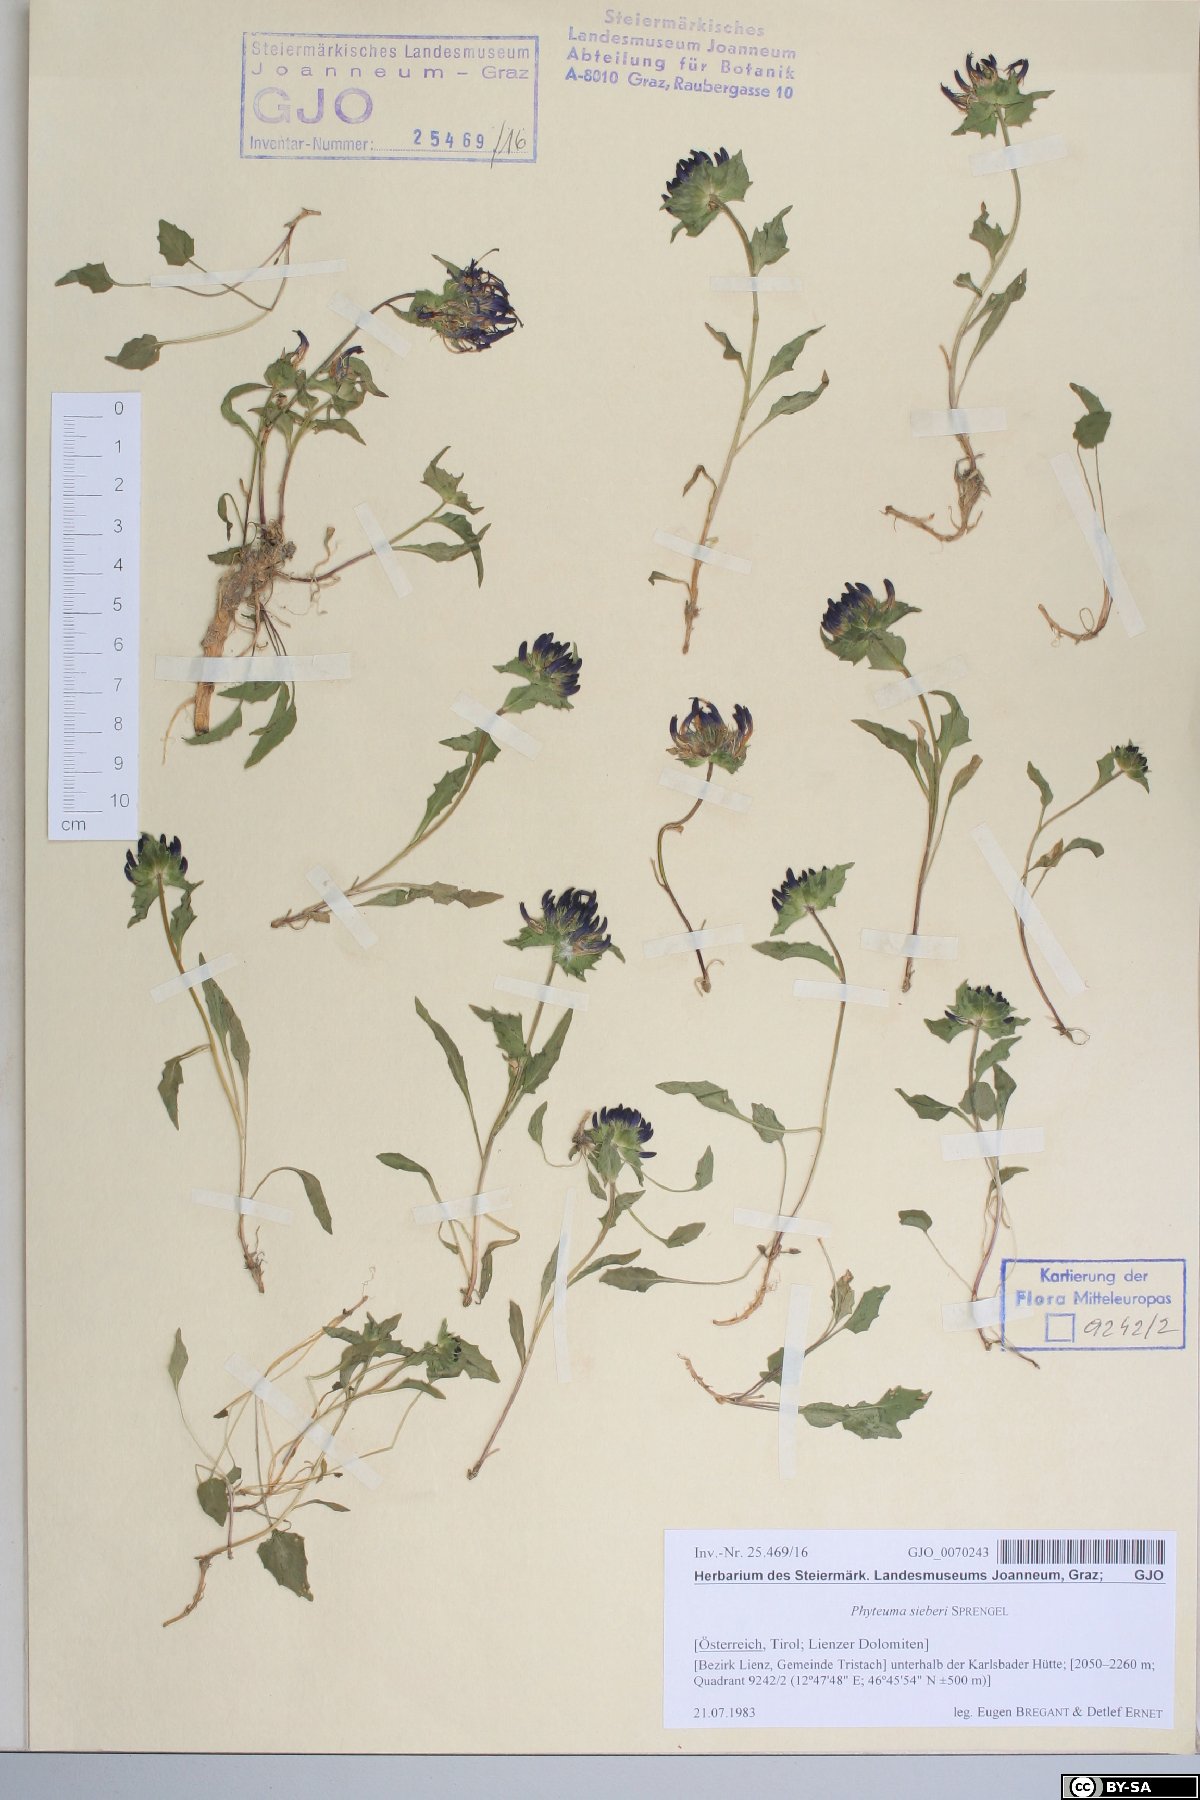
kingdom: Plantae
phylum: Tracheophyta
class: Magnoliopsida
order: Asterales
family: Campanulaceae
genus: Phyteuma
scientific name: Phyteuma sieberi
